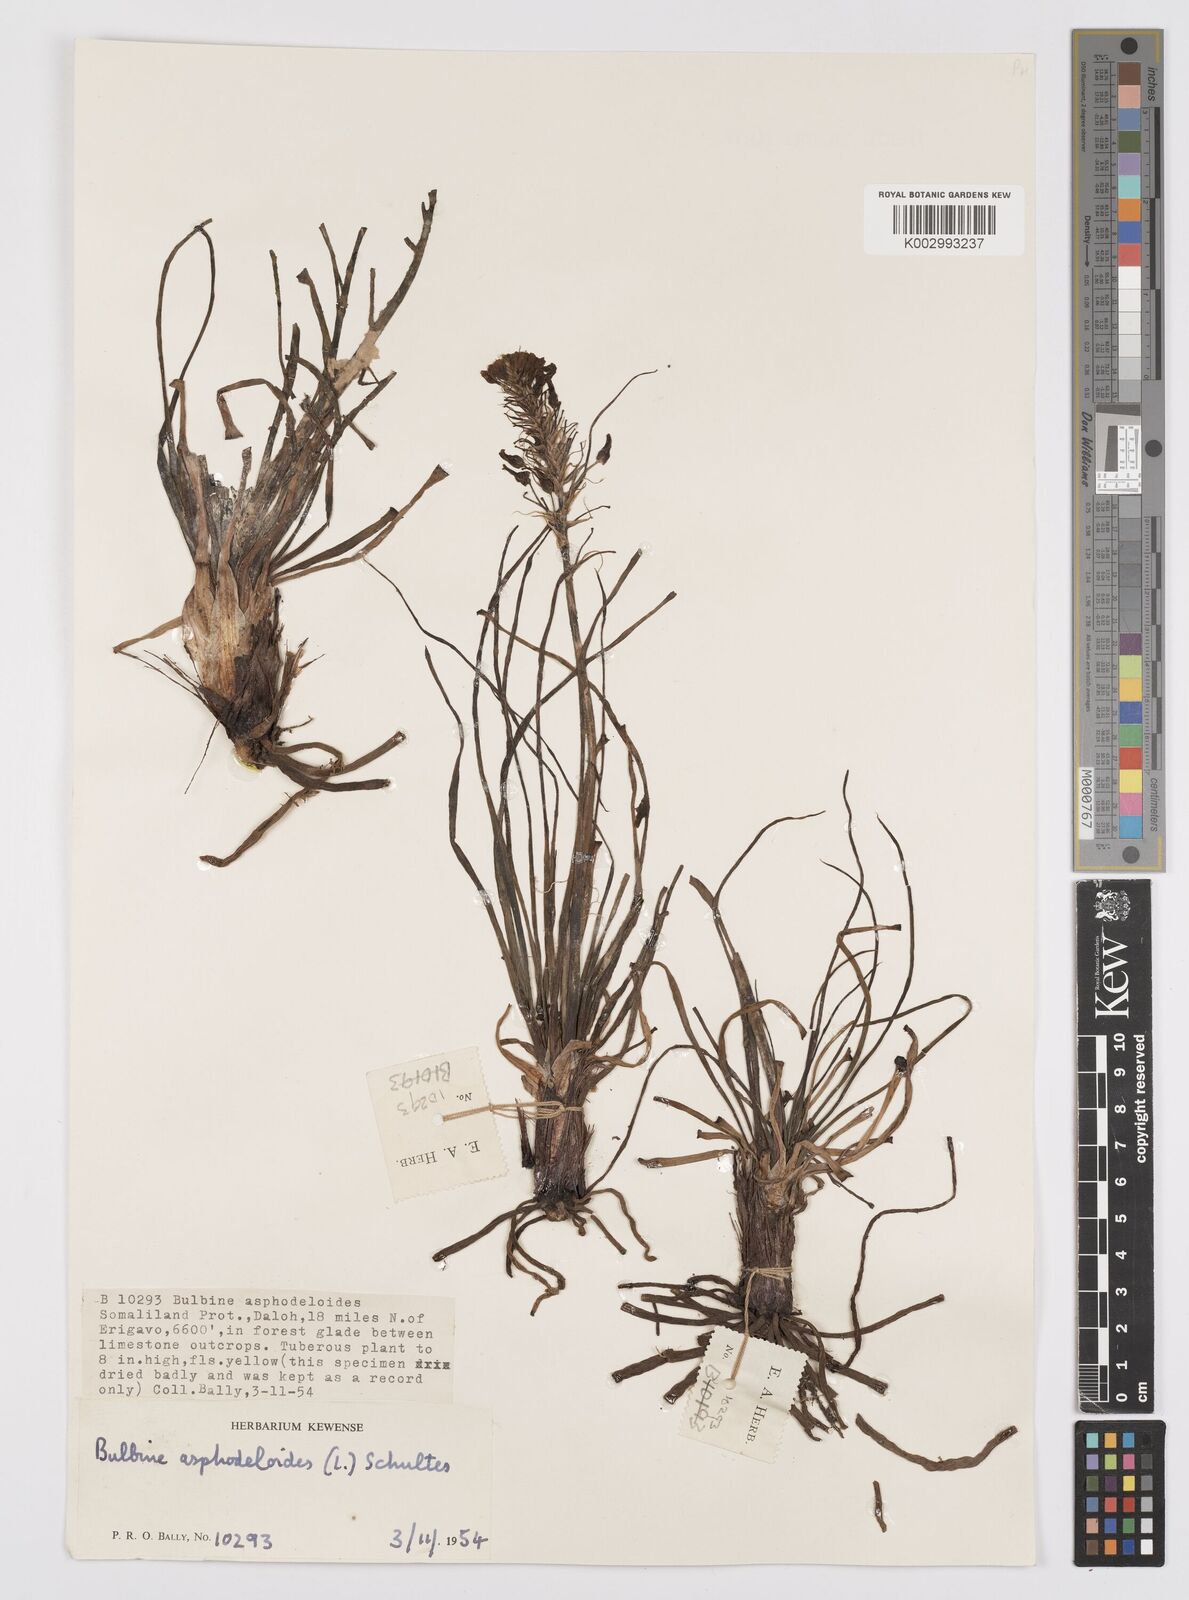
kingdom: Plantae
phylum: Tracheophyta
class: Liliopsida
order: Asparagales
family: Asphodelaceae
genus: Bulbine
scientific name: Bulbine abyssinica
